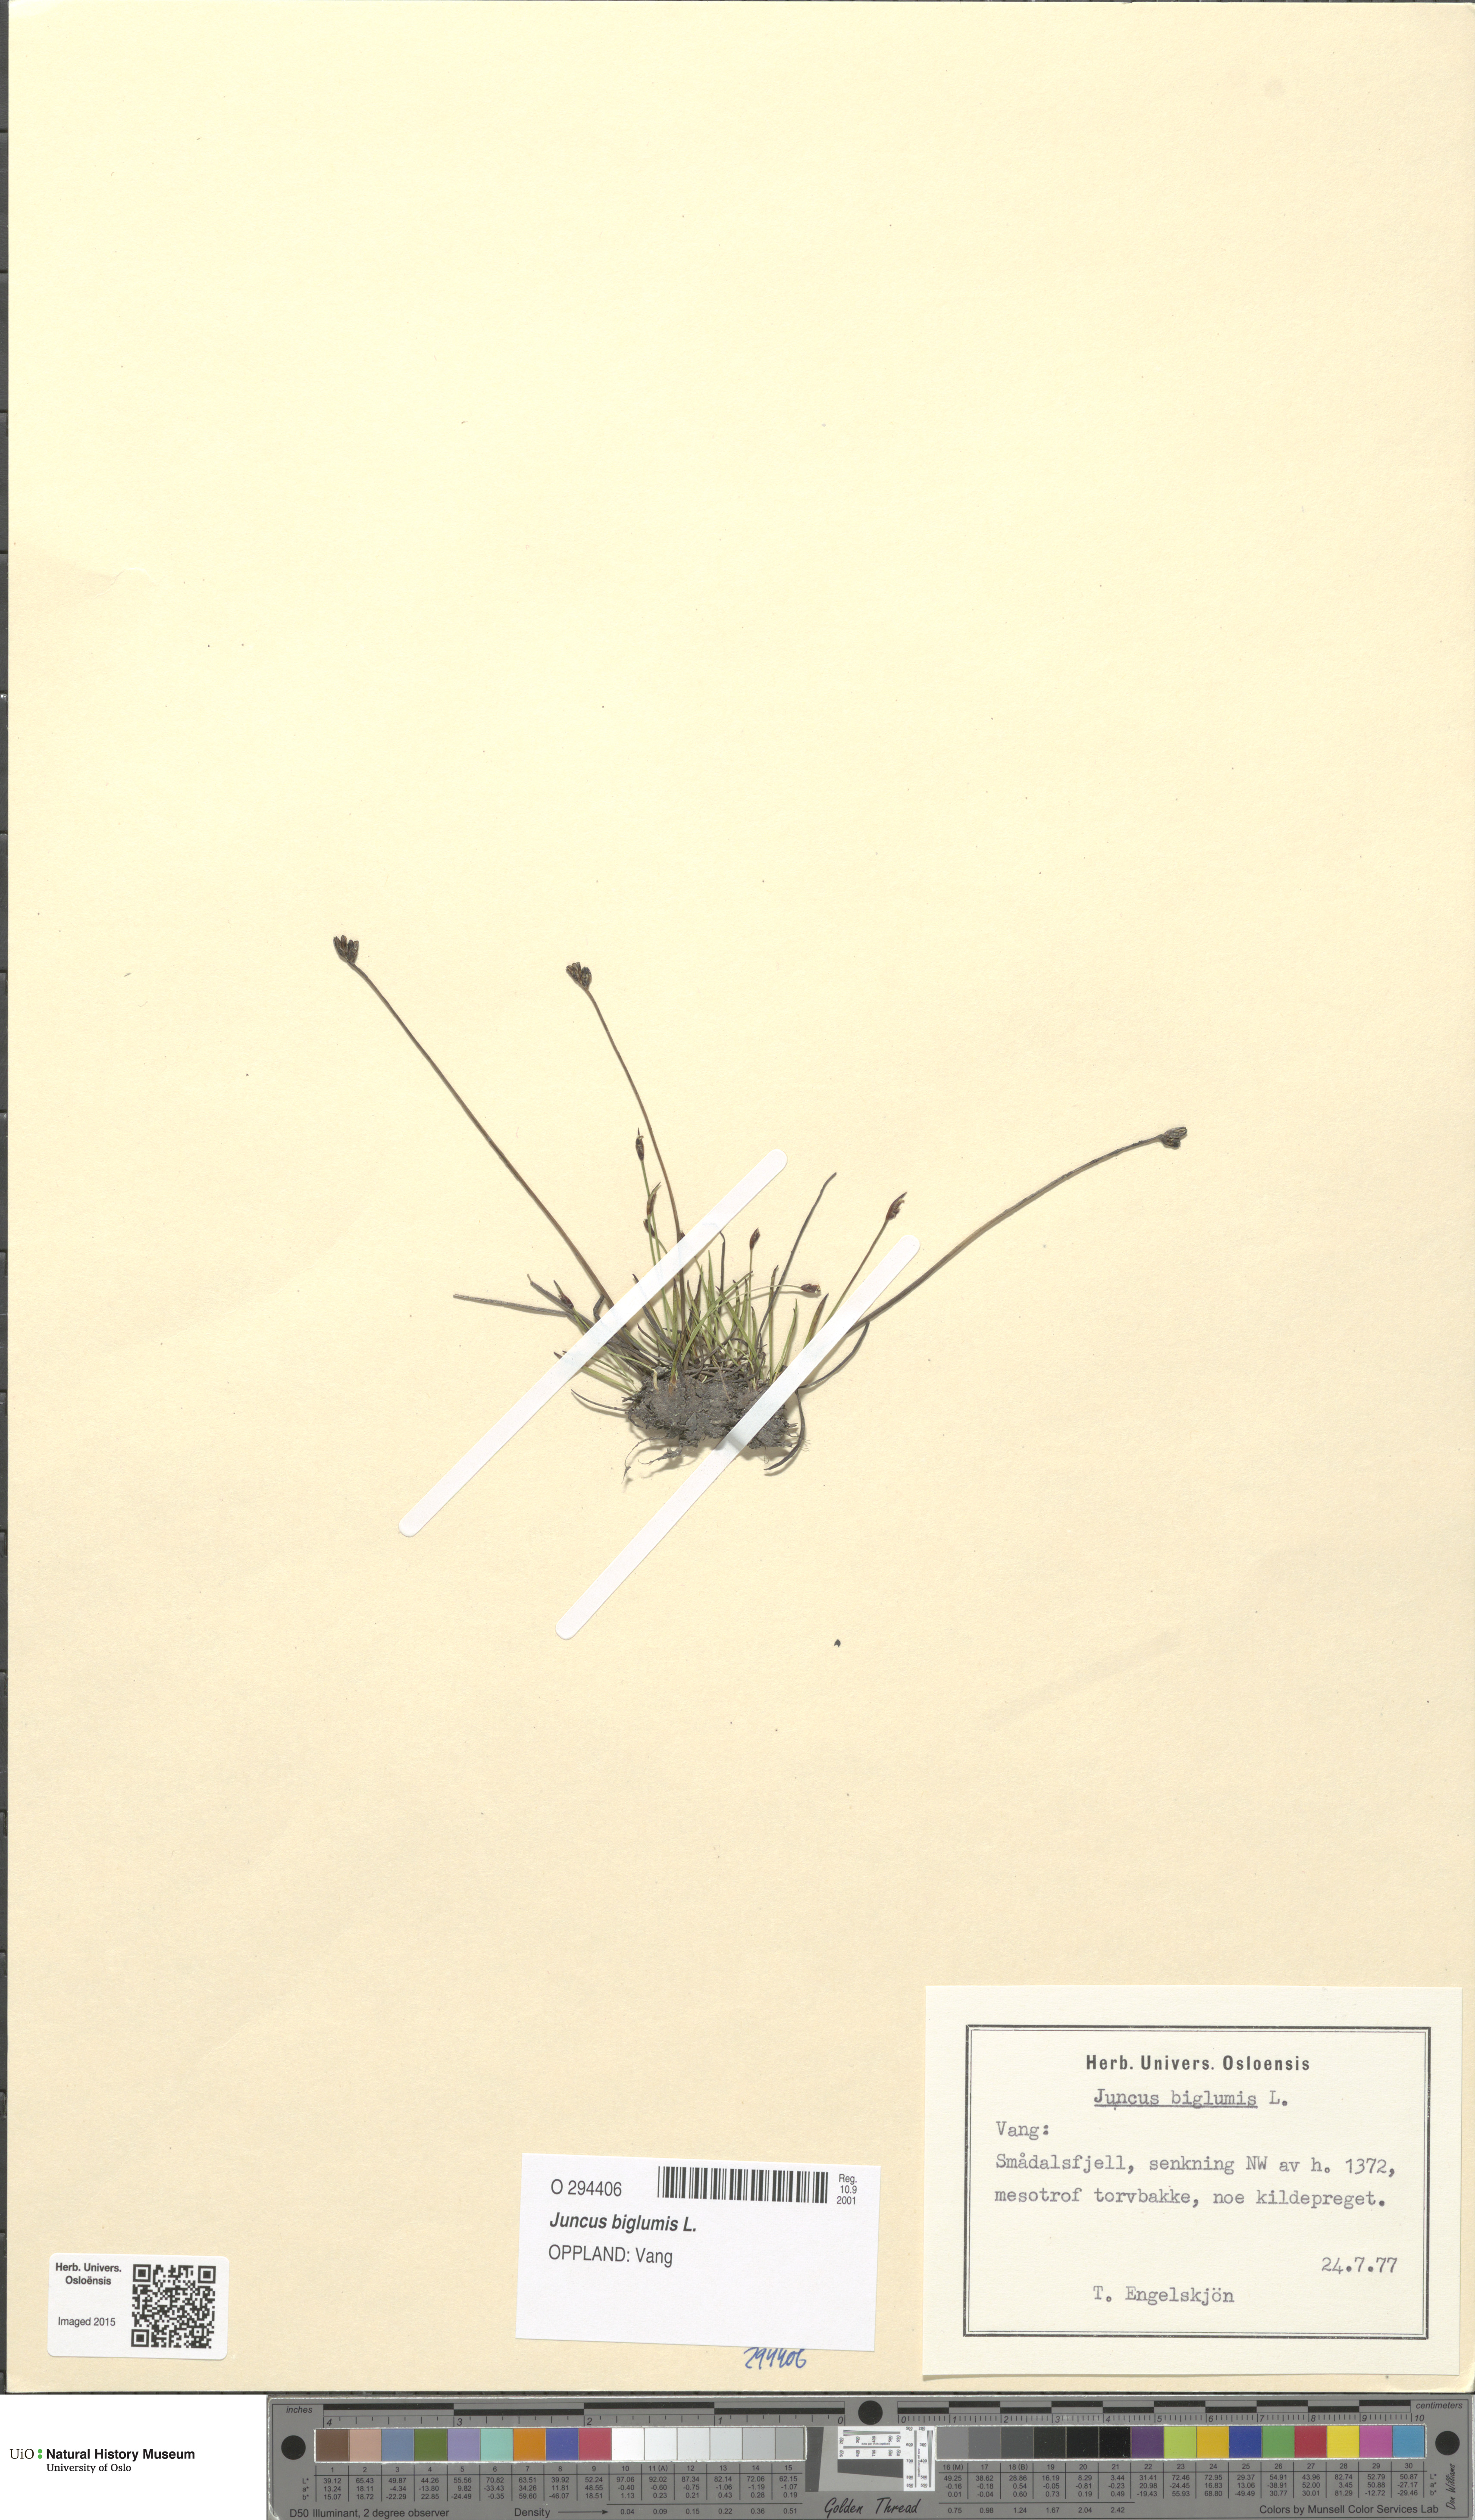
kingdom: Plantae
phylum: Tracheophyta
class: Liliopsida
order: Poales
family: Juncaceae
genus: Juncus
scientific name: Juncus biglumis
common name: Two-flowered rush
